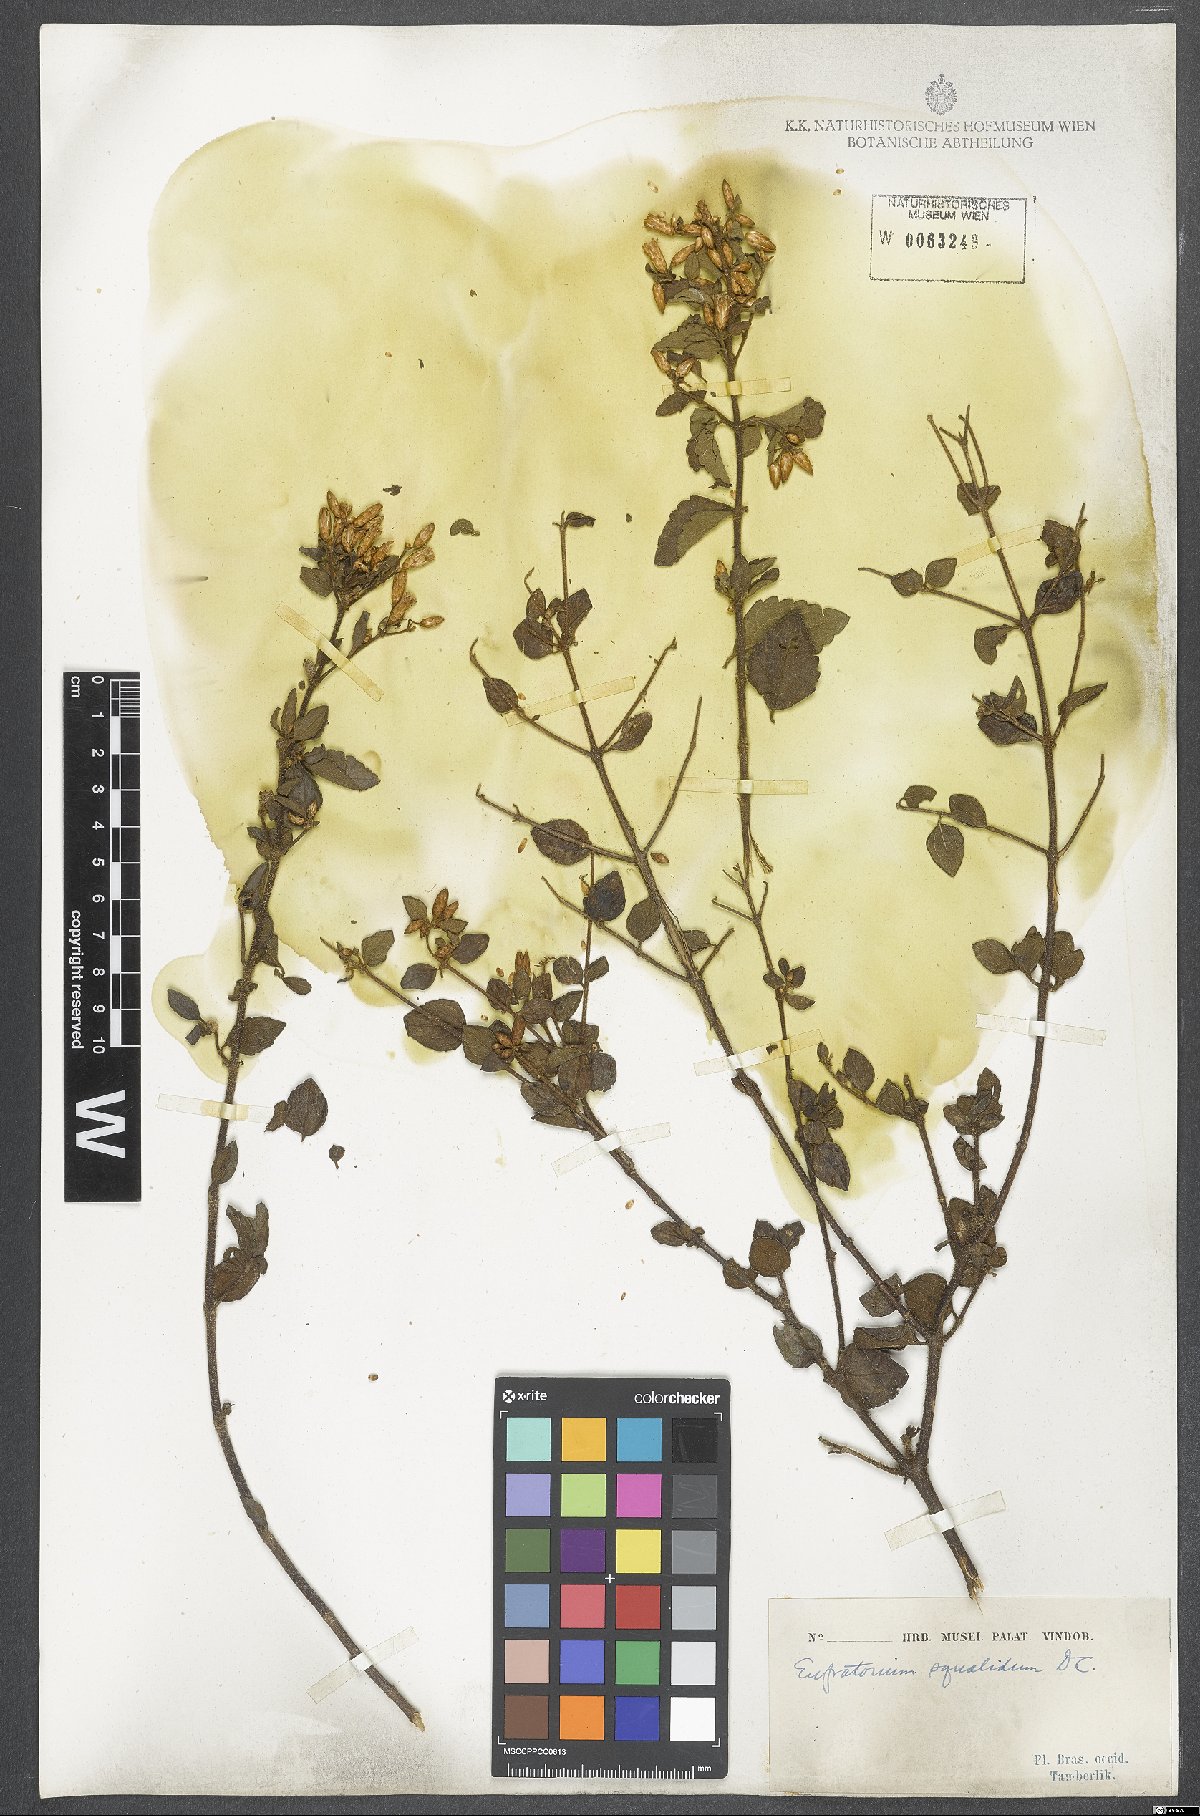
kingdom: Plantae
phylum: Tracheophyta
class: Magnoliopsida
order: Asterales
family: Asteraceae
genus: Chromolaena
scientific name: Chromolaena squalida
